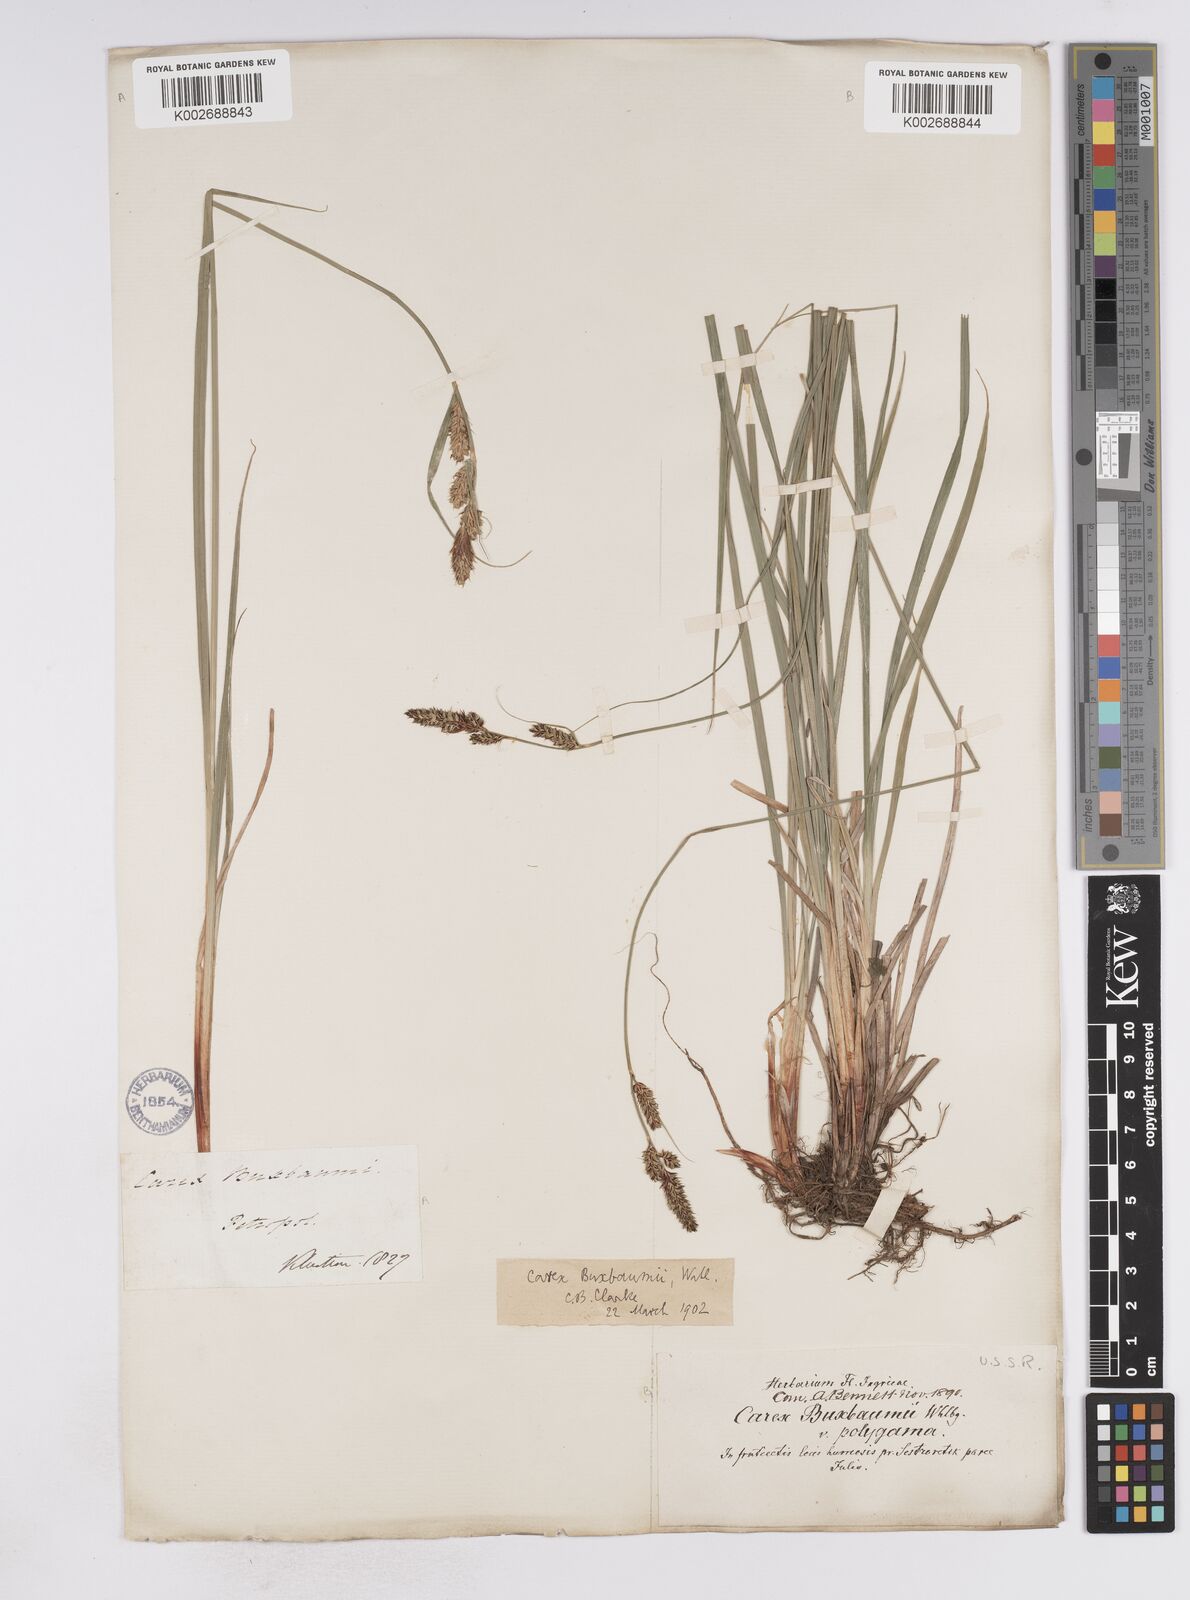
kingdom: Plantae
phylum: Tracheophyta
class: Liliopsida
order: Poales
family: Cyperaceae
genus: Carex
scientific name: Carex buxbaumii
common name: Club sedge
